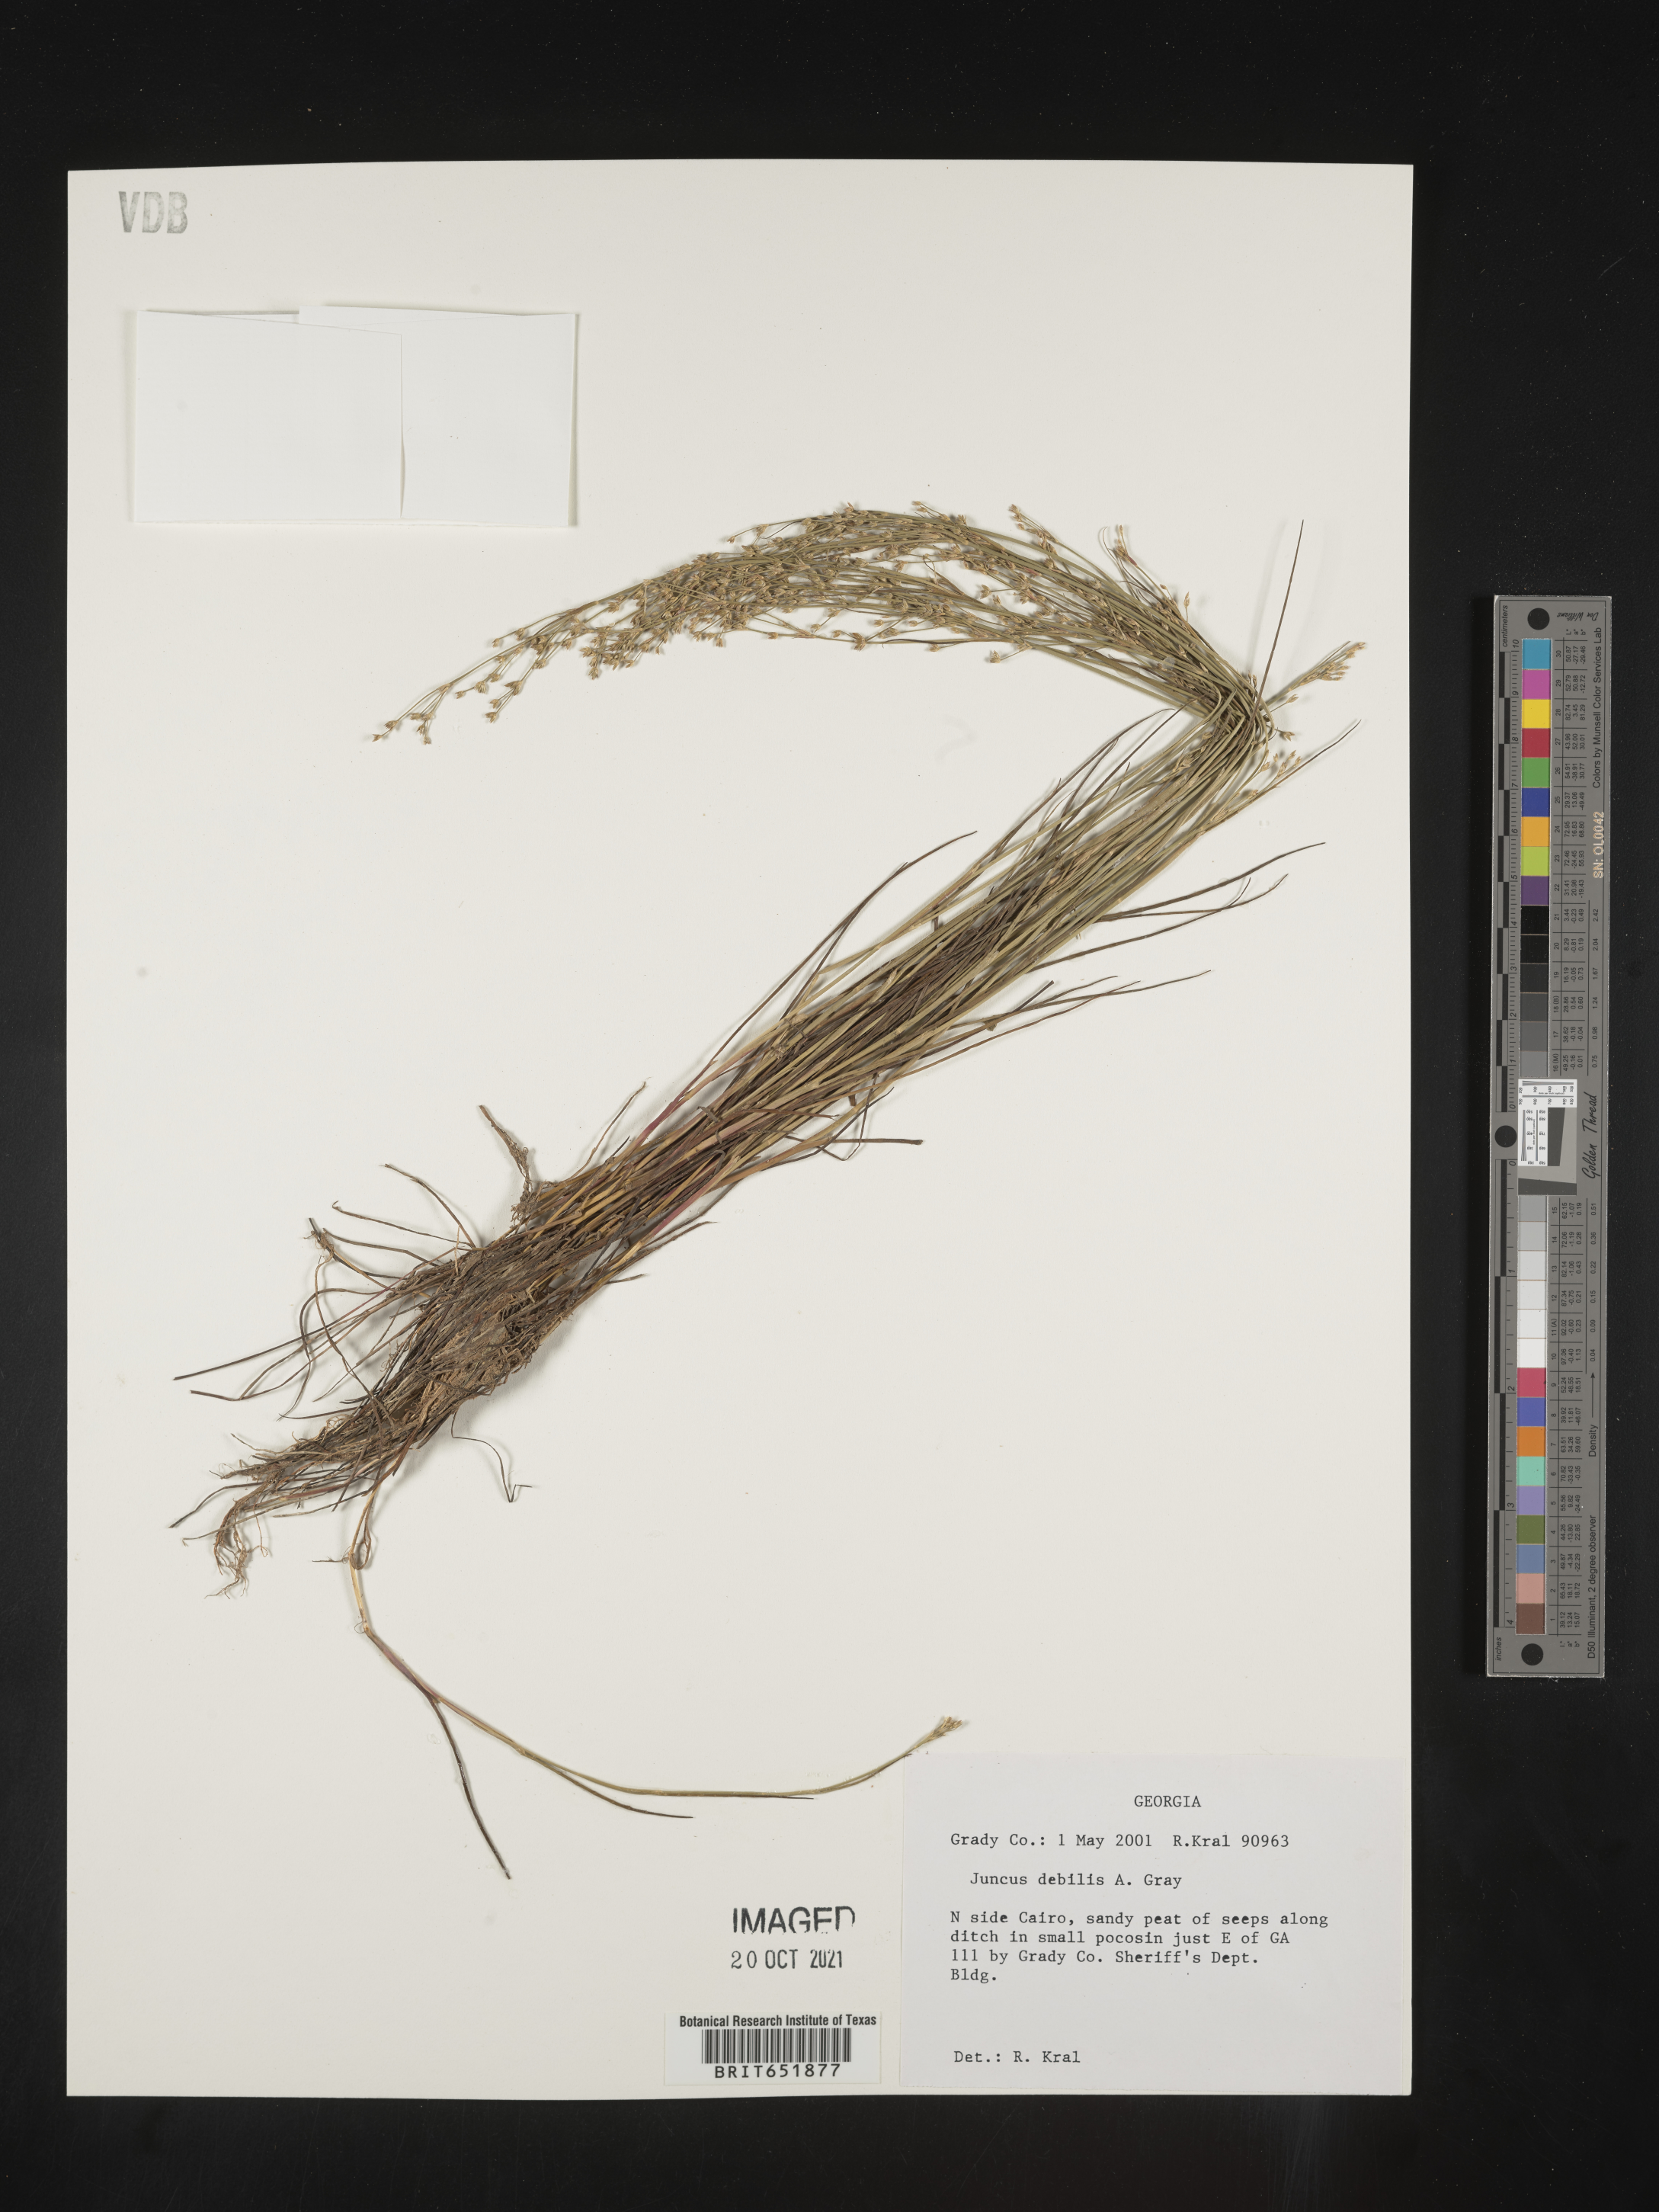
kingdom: Plantae
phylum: Tracheophyta
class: Liliopsida
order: Poales
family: Juncaceae
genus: Juncus
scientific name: Juncus debilis
